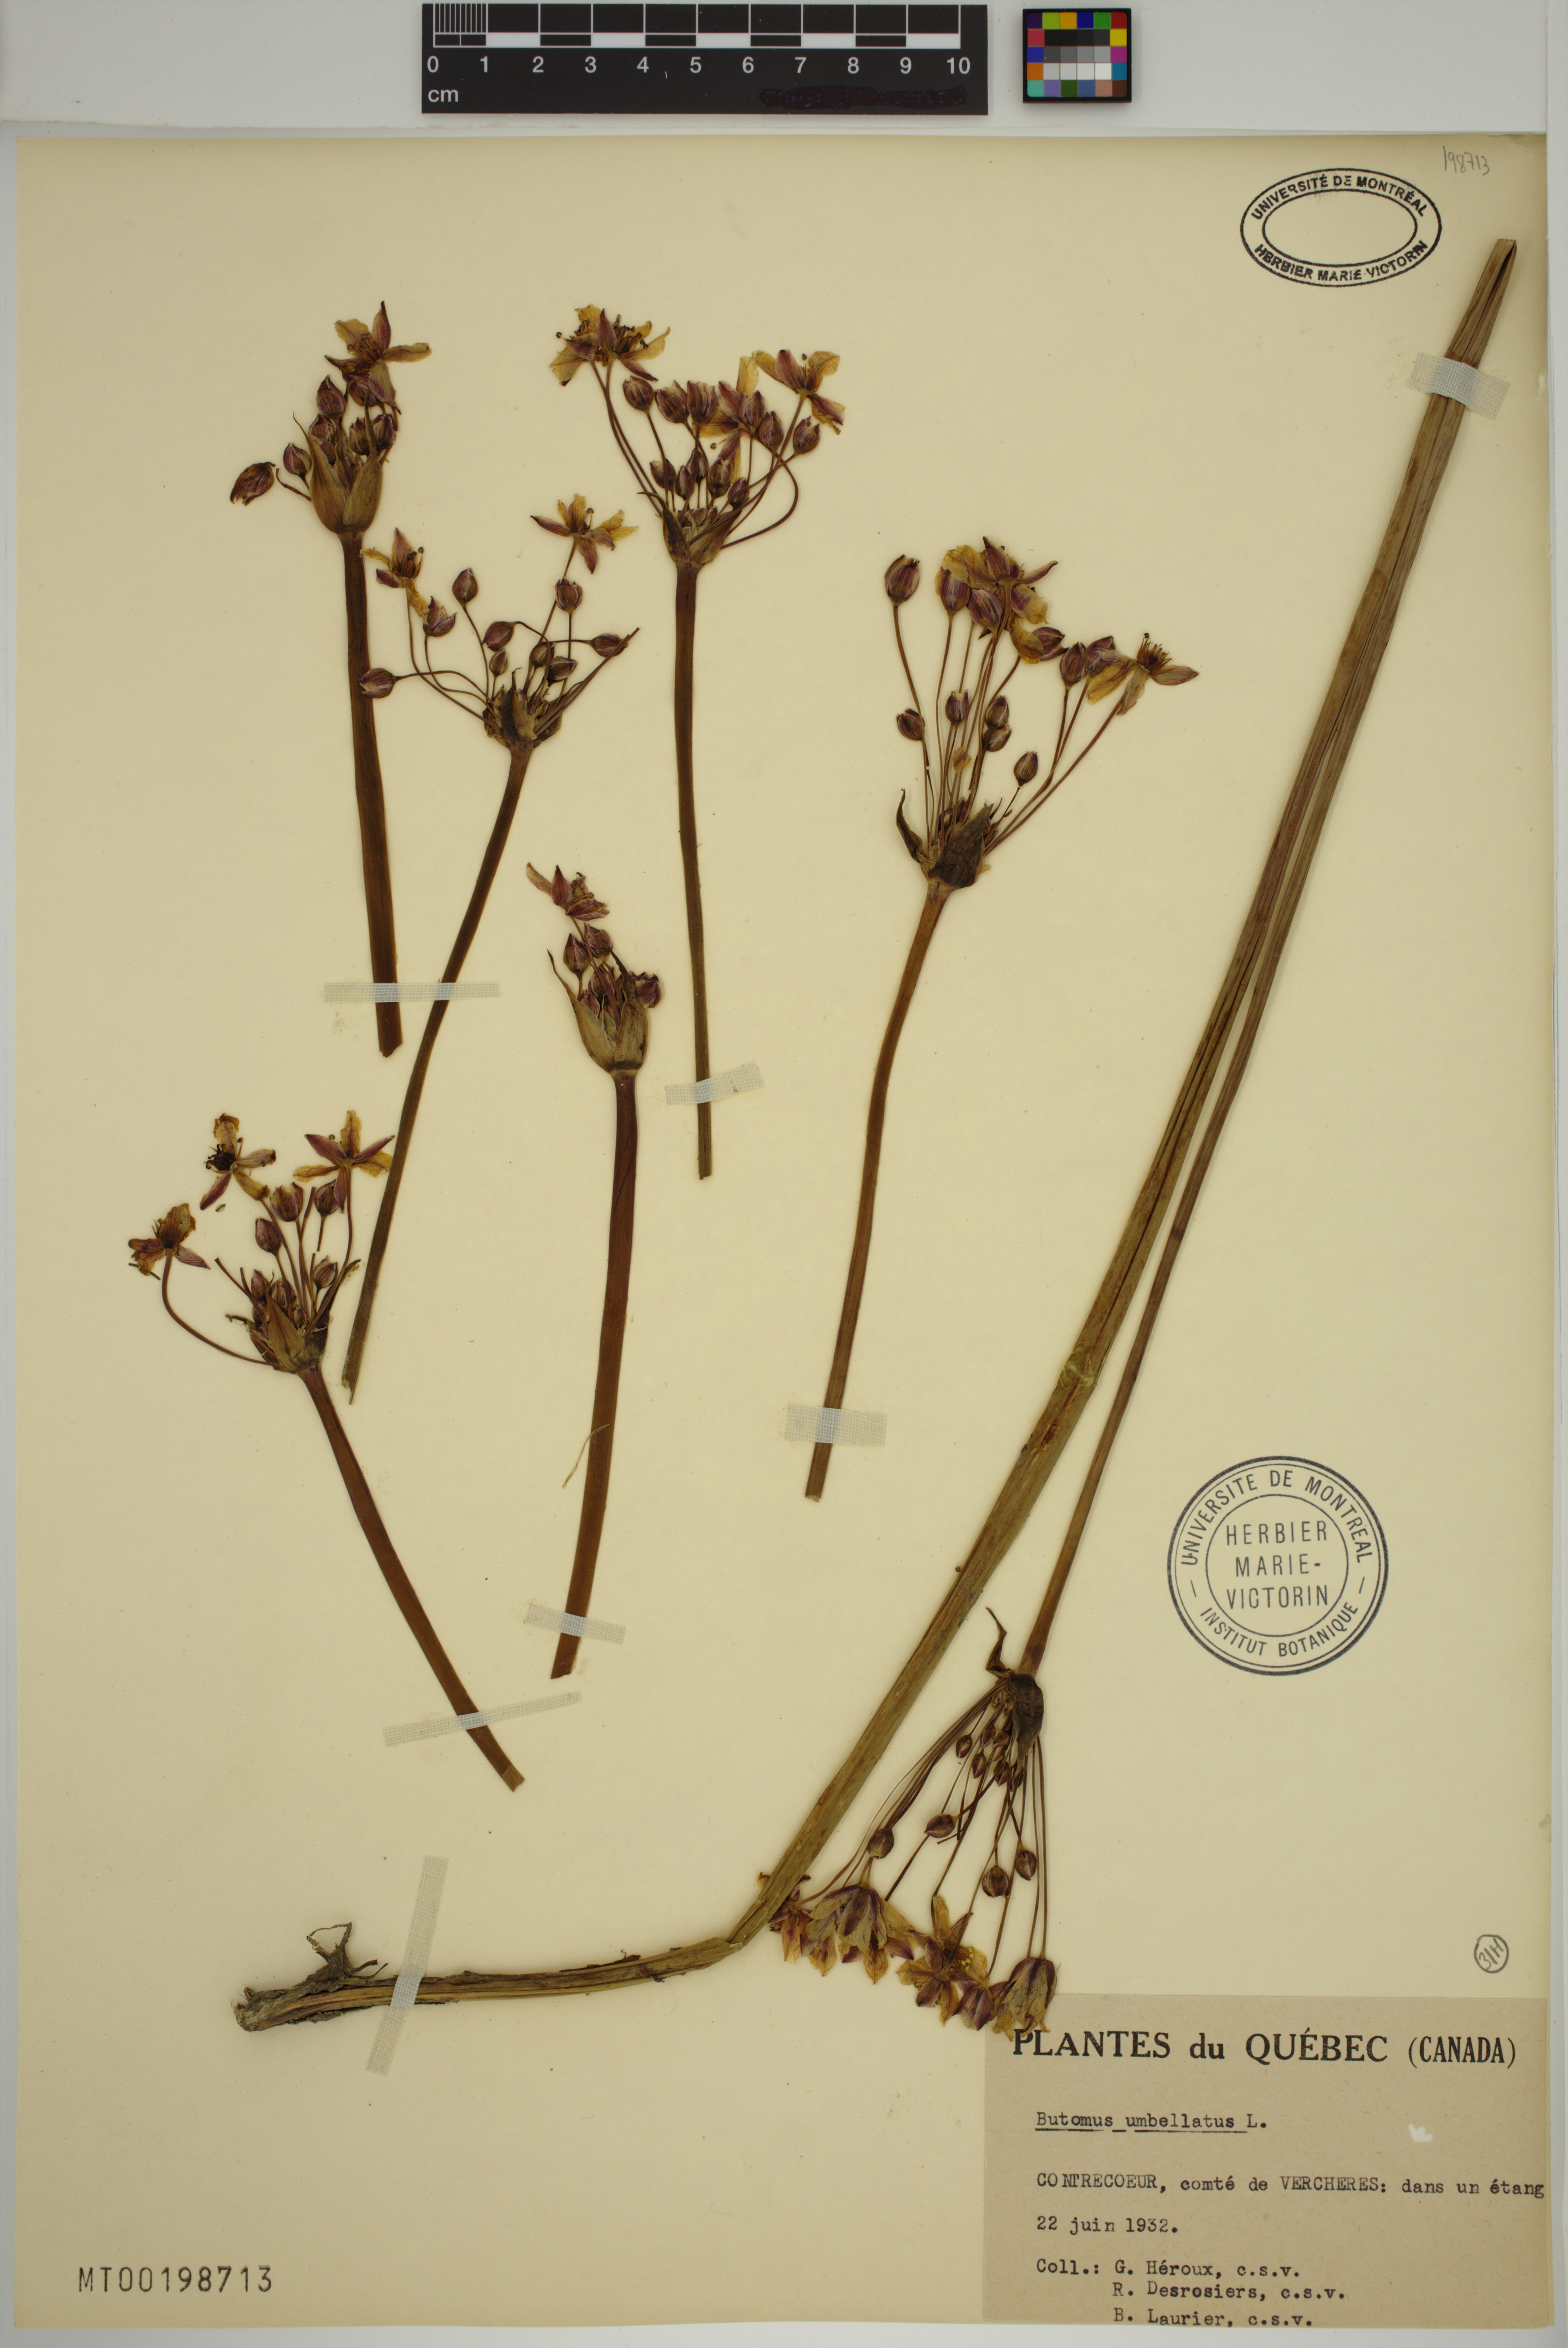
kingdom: Plantae
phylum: Tracheophyta
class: Liliopsida
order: Alismatales
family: Butomaceae
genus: Butomus
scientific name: Butomus umbellatus
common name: Flowering-rush
